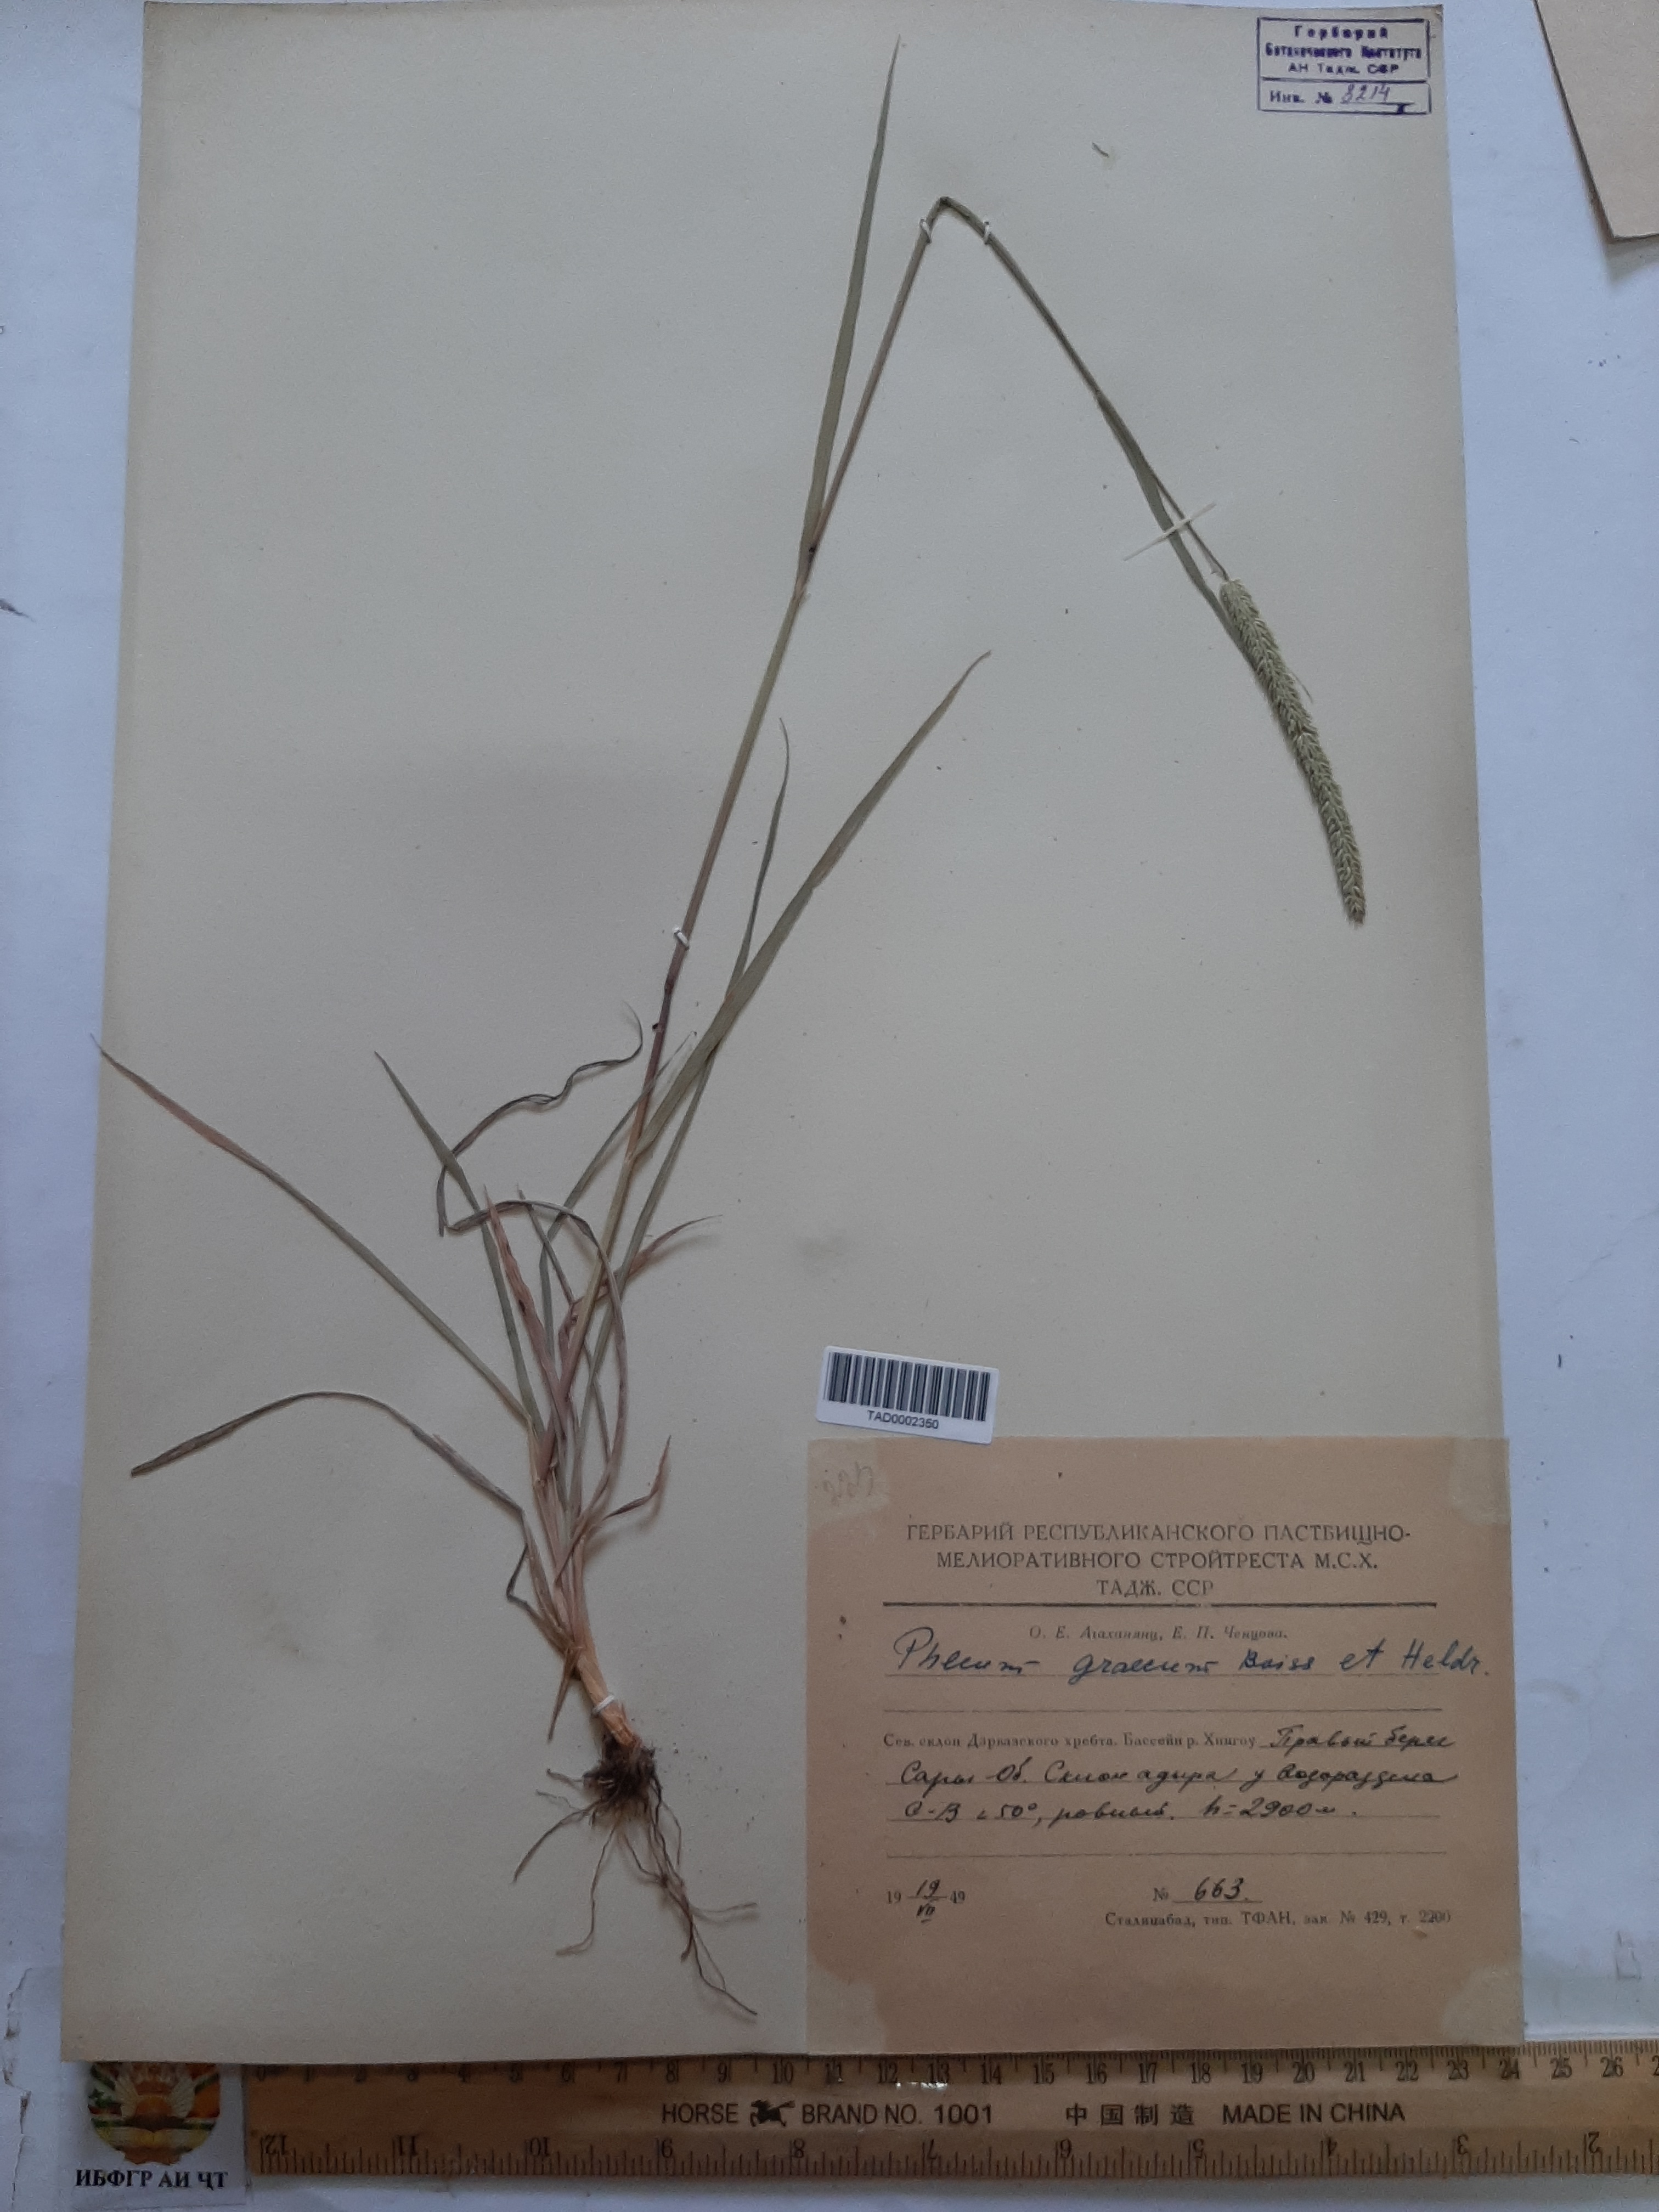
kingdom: Plantae
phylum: Tracheophyta
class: Liliopsida
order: Poales
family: Poaceae
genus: Phleum
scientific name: Phleum exaratum
